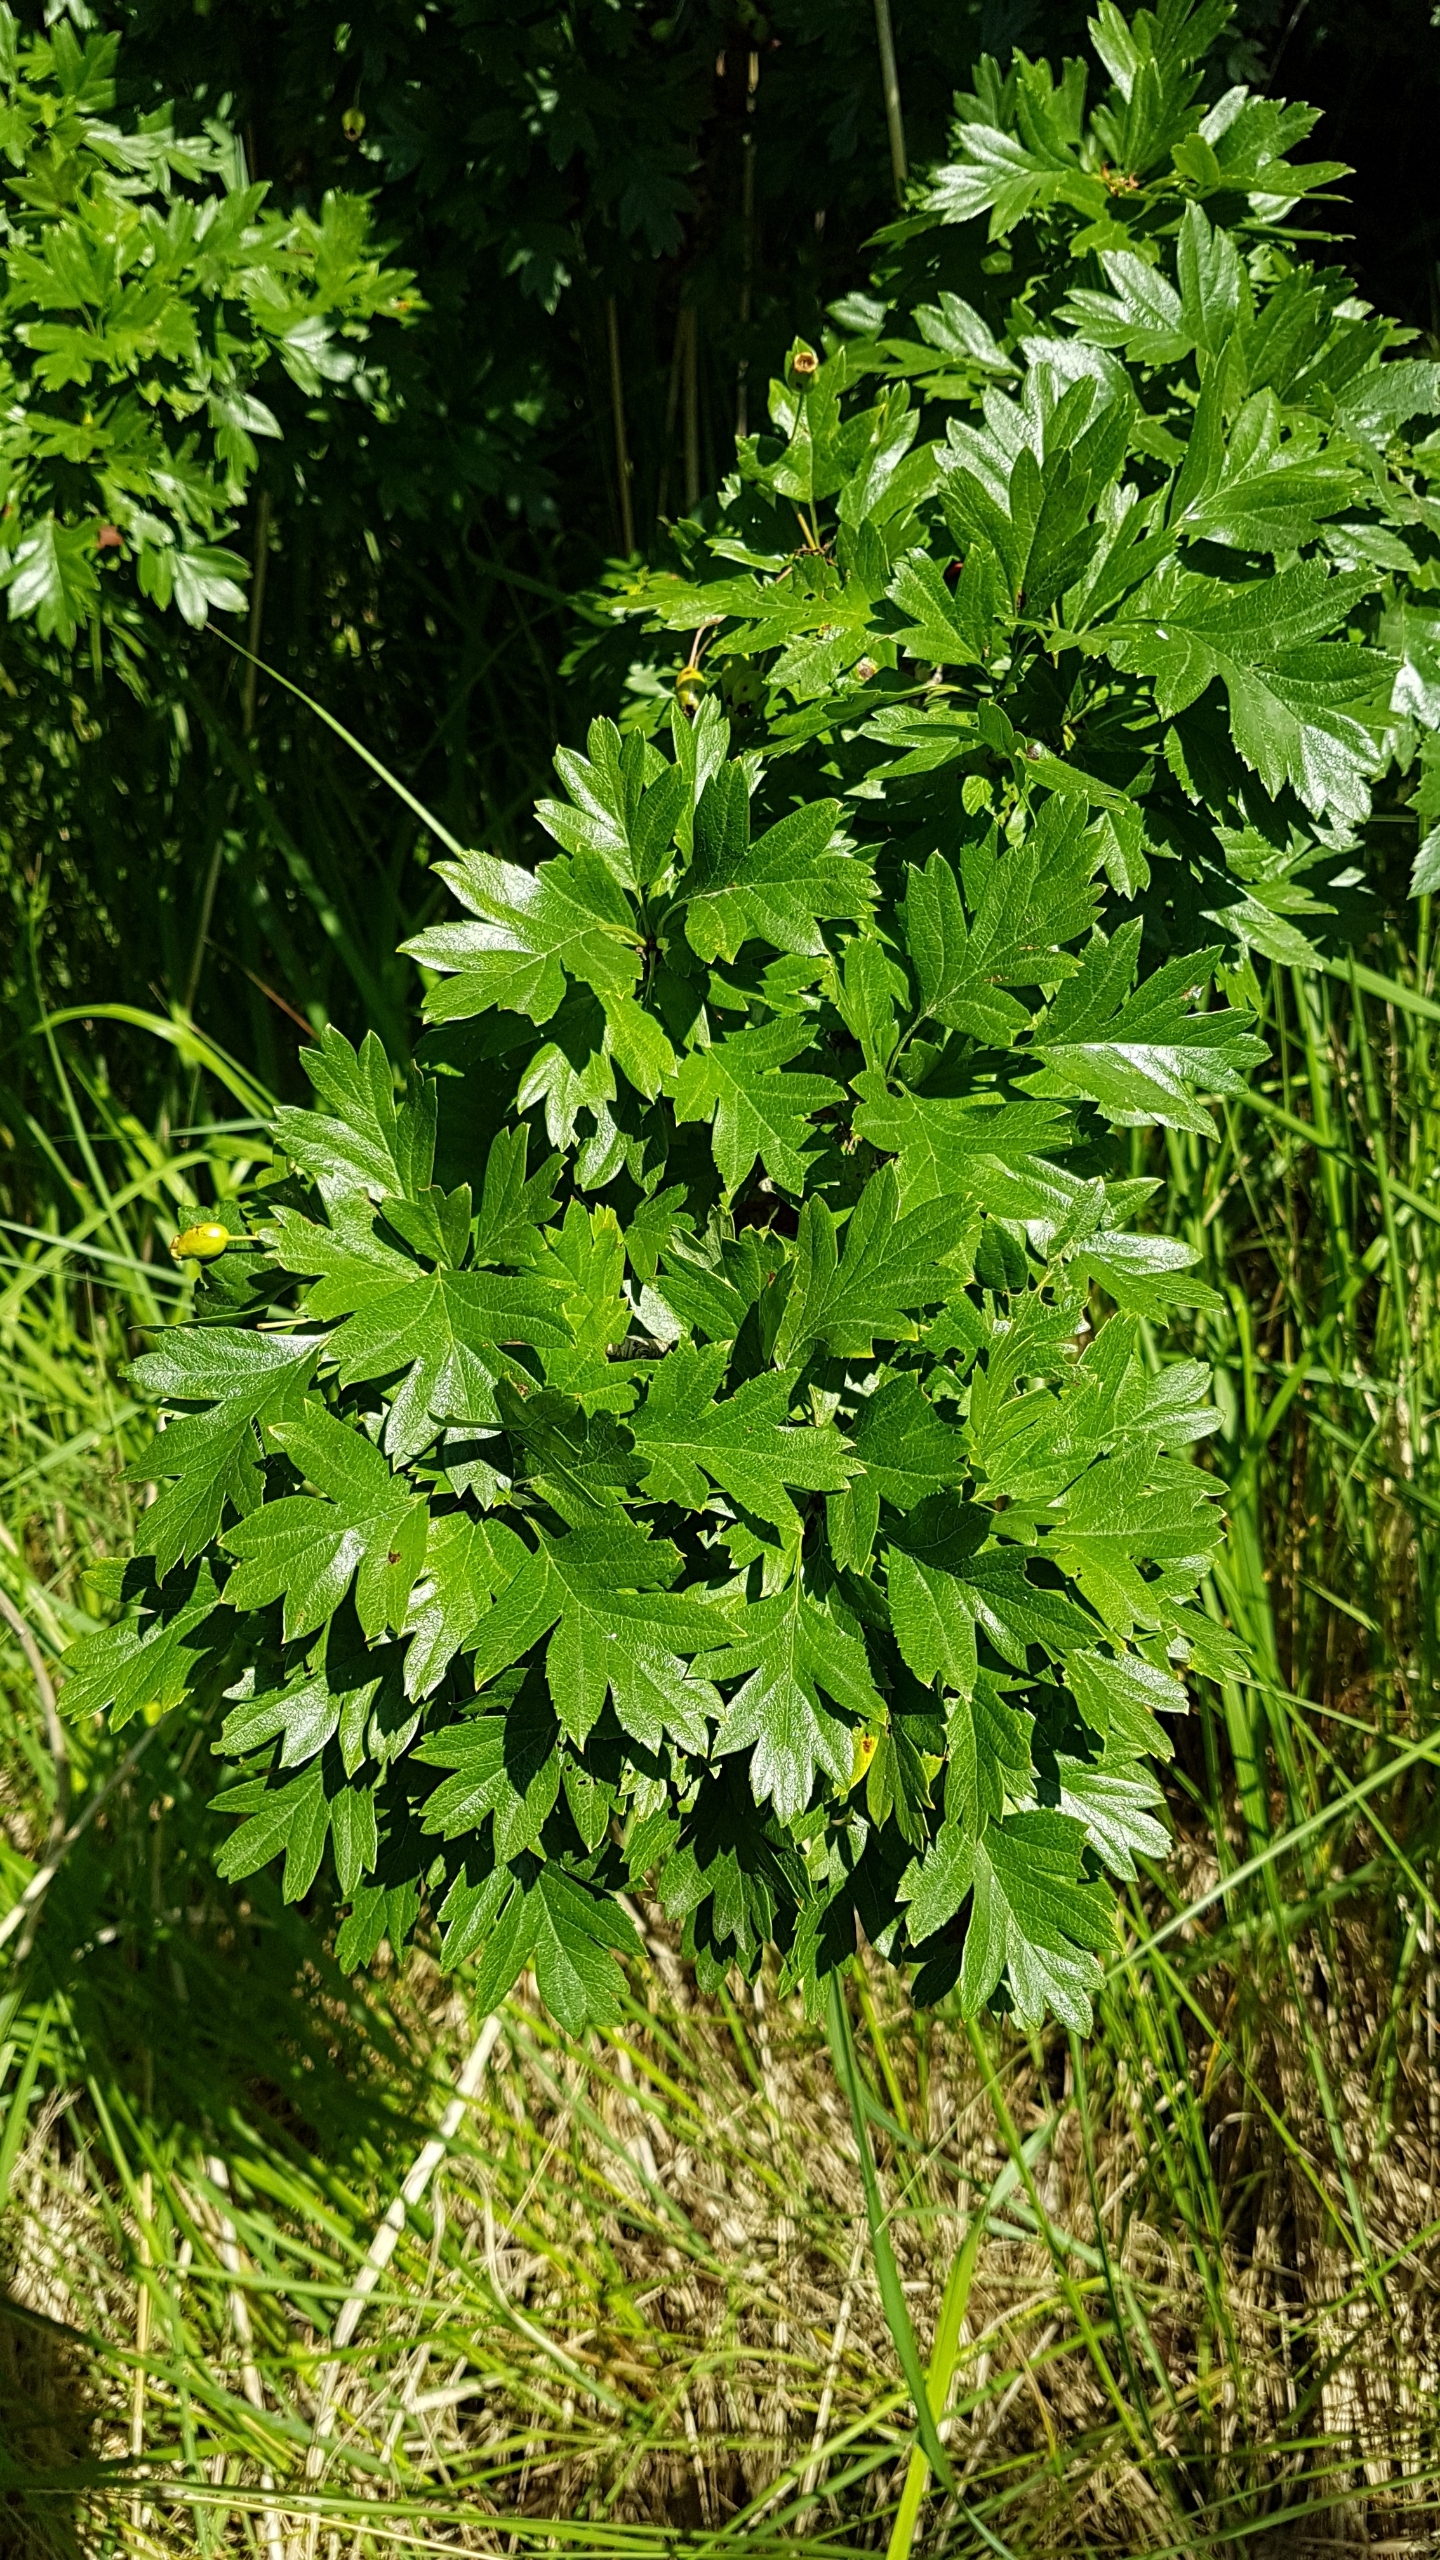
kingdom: Plantae
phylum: Tracheophyta
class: Magnoliopsida
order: Rosales
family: Rosaceae
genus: Crataegus
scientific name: Crataegus monogyna
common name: Engriflet hvidtjørn
